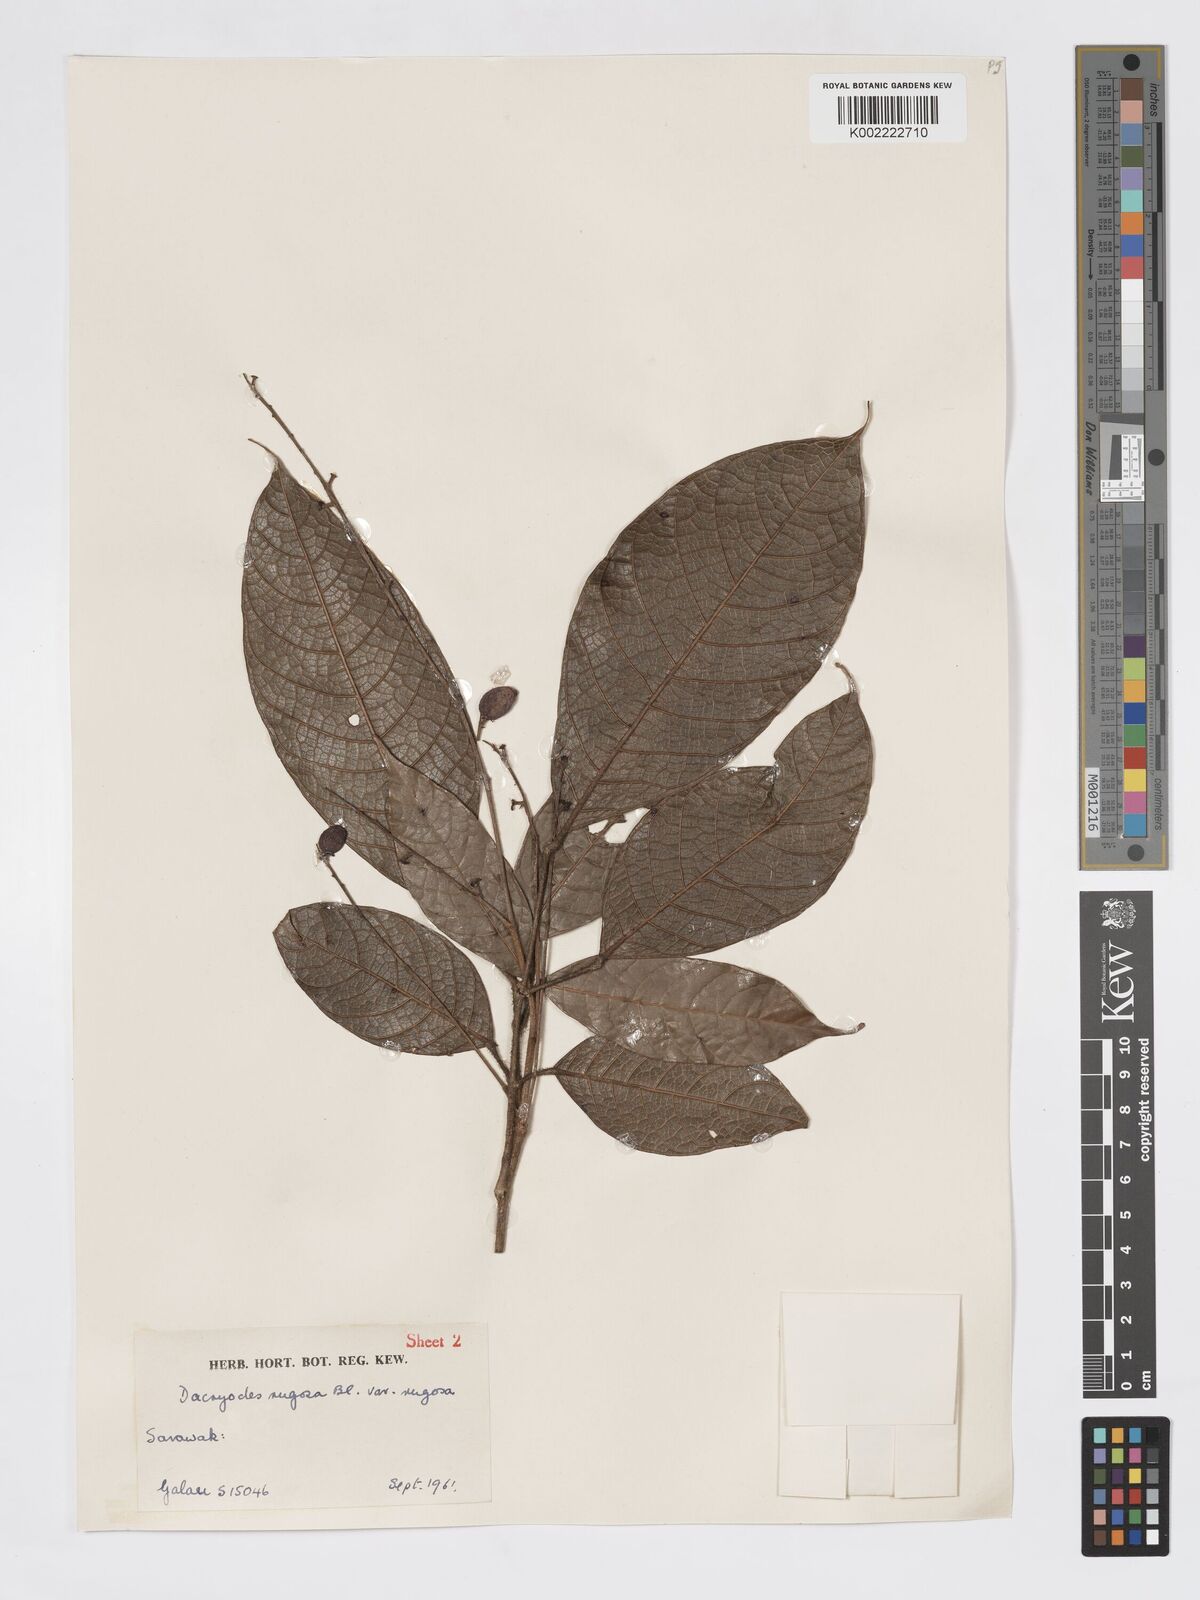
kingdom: Plantae
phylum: Tracheophyta
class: Magnoliopsida
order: Sapindales
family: Burseraceae
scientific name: Burseraceae
